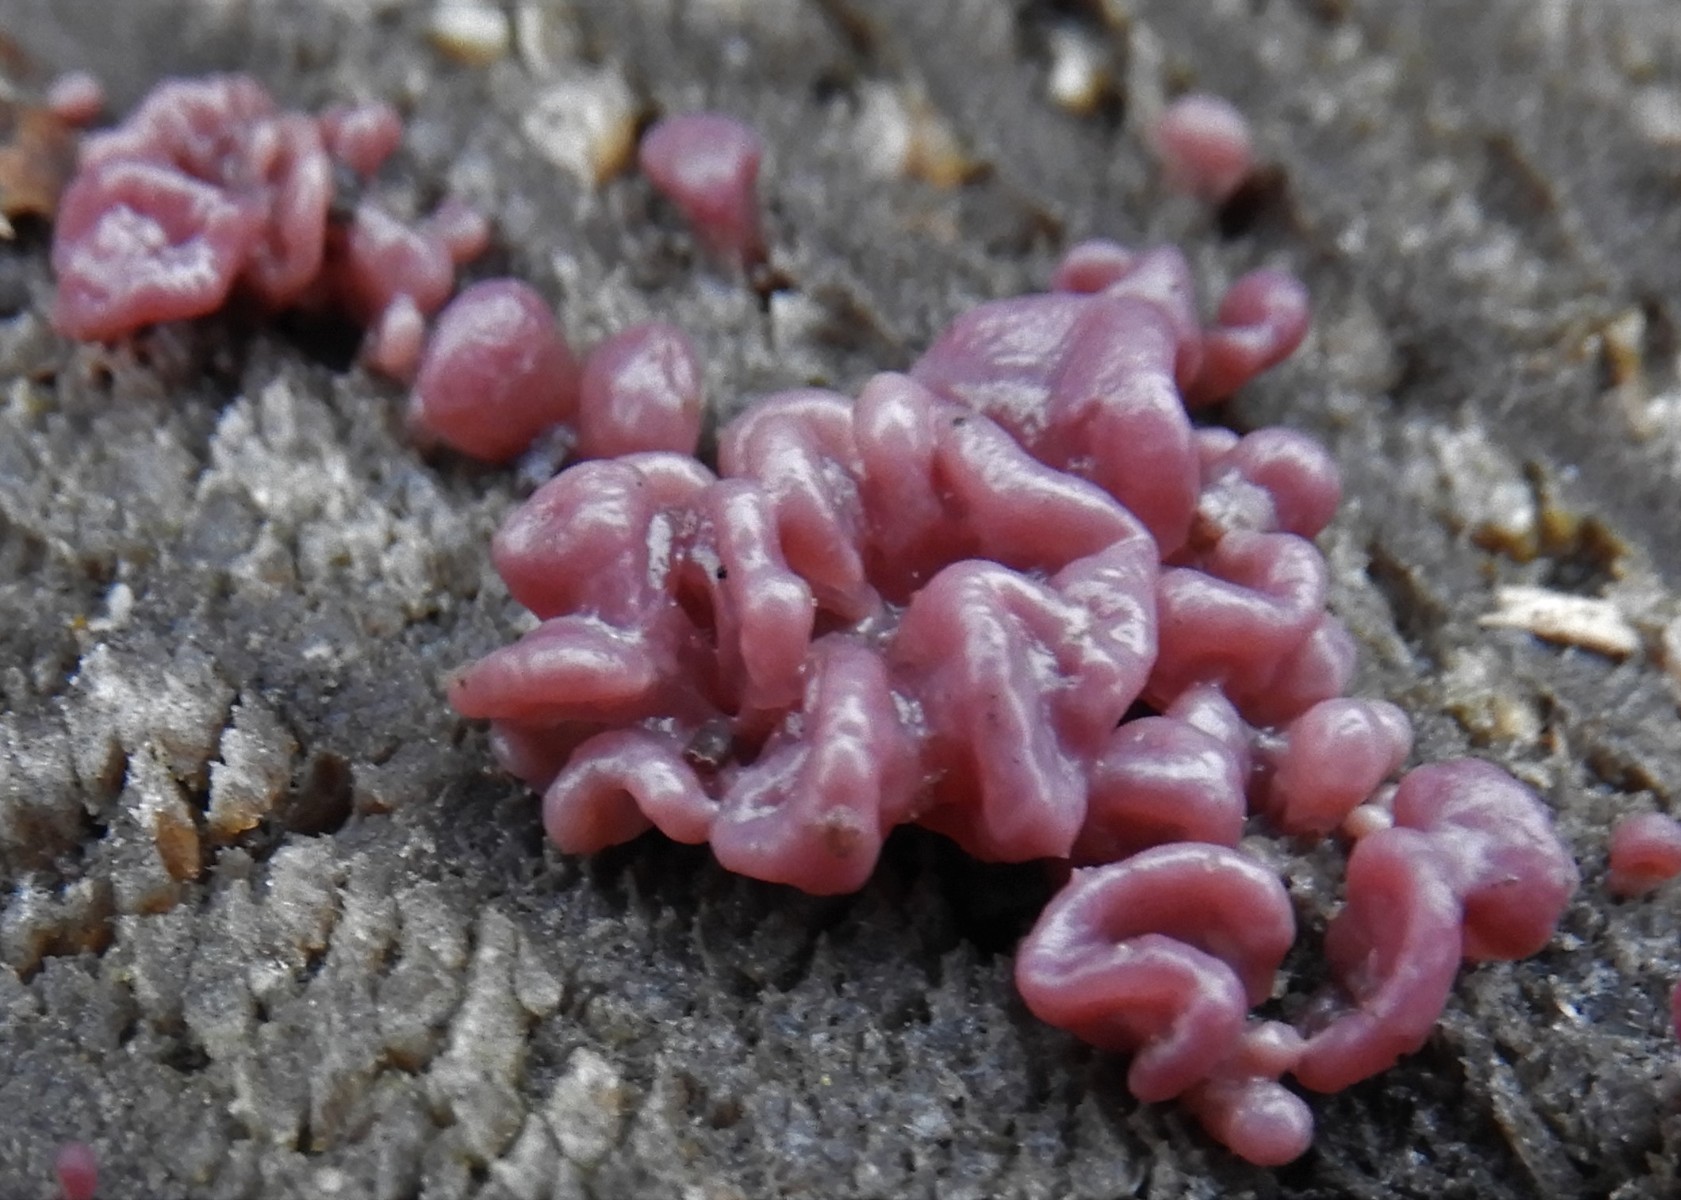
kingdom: Fungi
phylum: Ascomycota
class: Leotiomycetes
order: Helotiales
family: Gelatinodiscaceae
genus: Ascocoryne
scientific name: Ascocoryne sarcoides
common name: rødlilla sejskive
